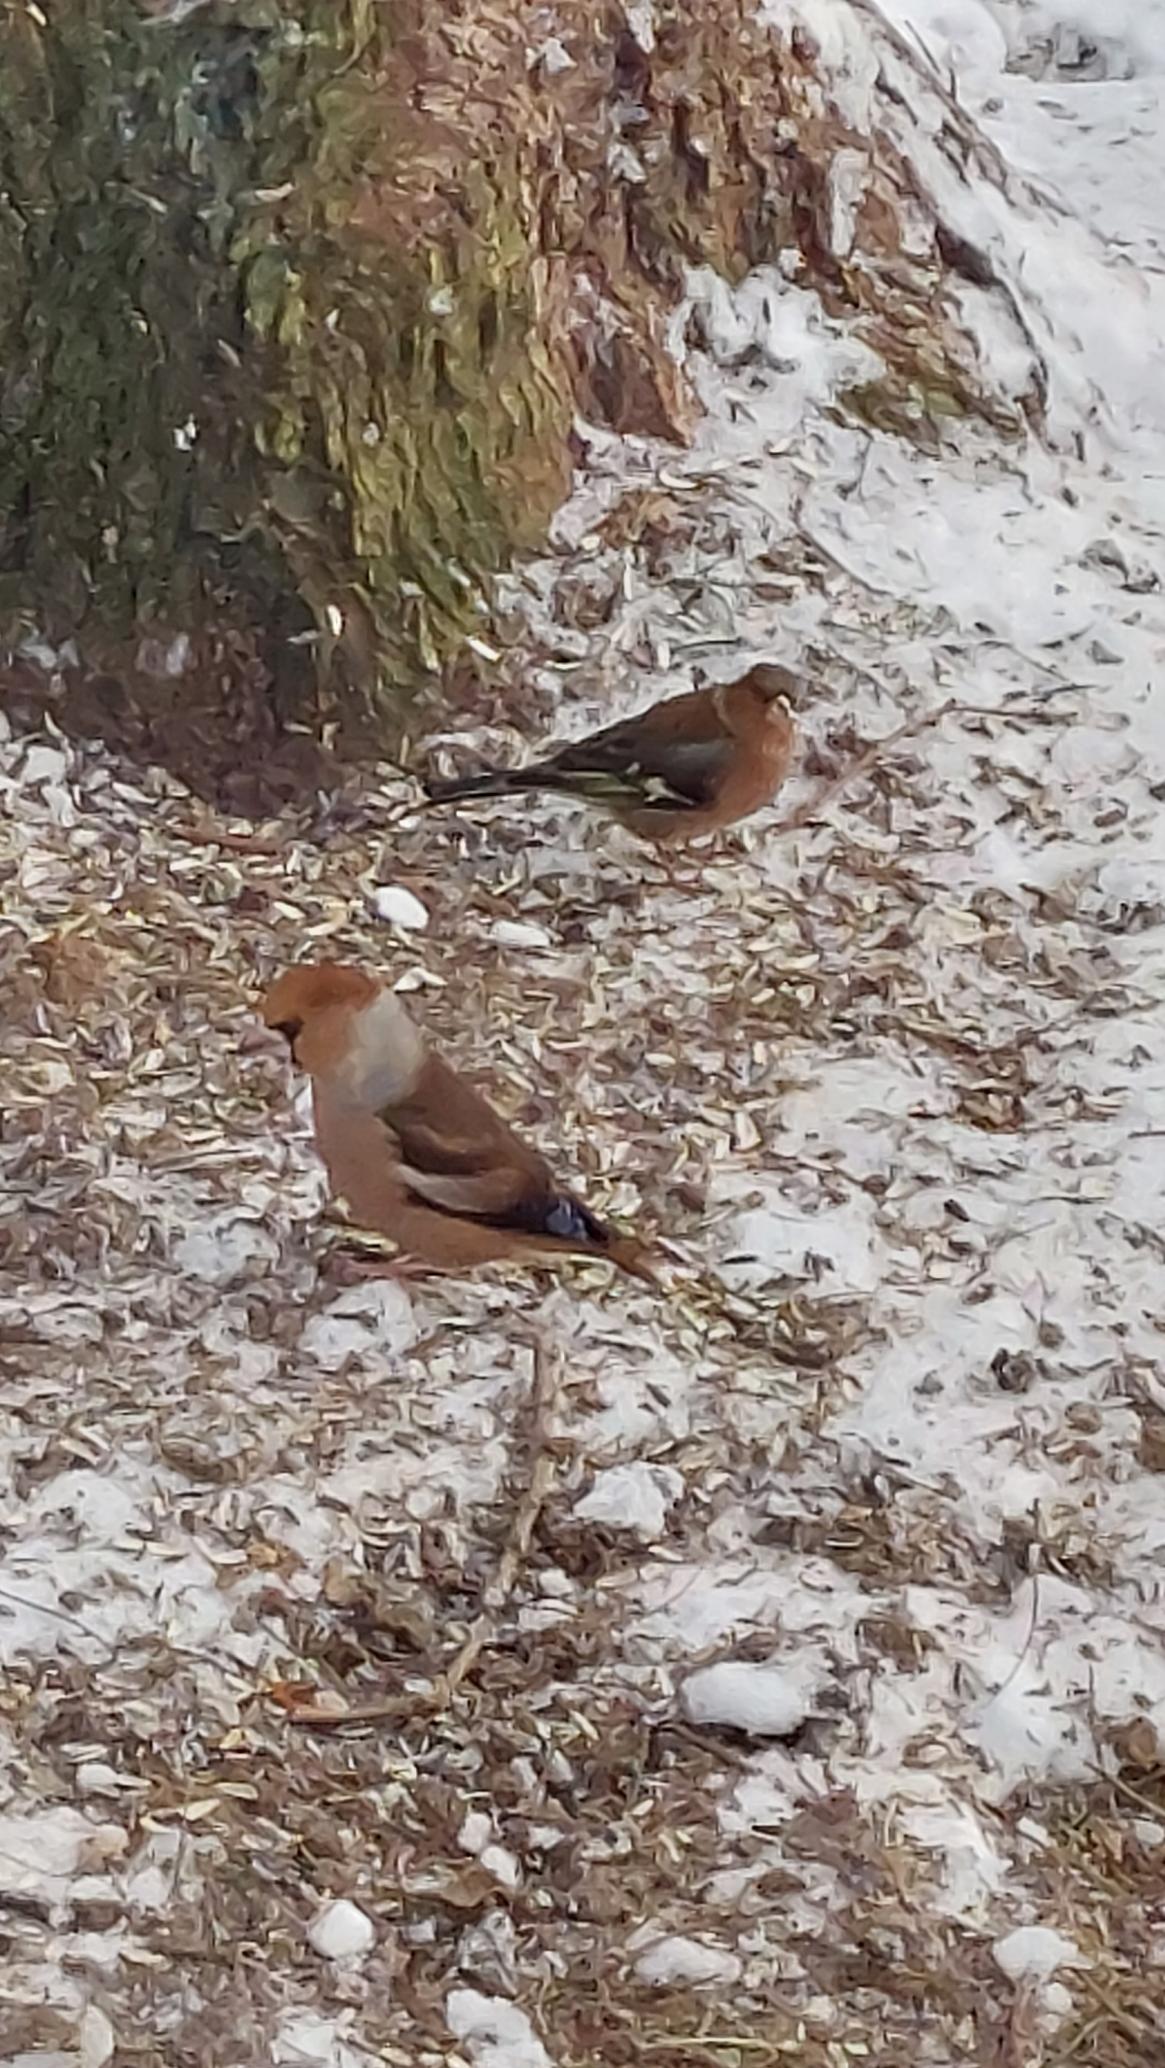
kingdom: Animalia
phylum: Chordata
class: Aves
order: Passeriformes
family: Fringillidae
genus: Coccothraustes
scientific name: Coccothraustes coccothraustes
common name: Kernebider
